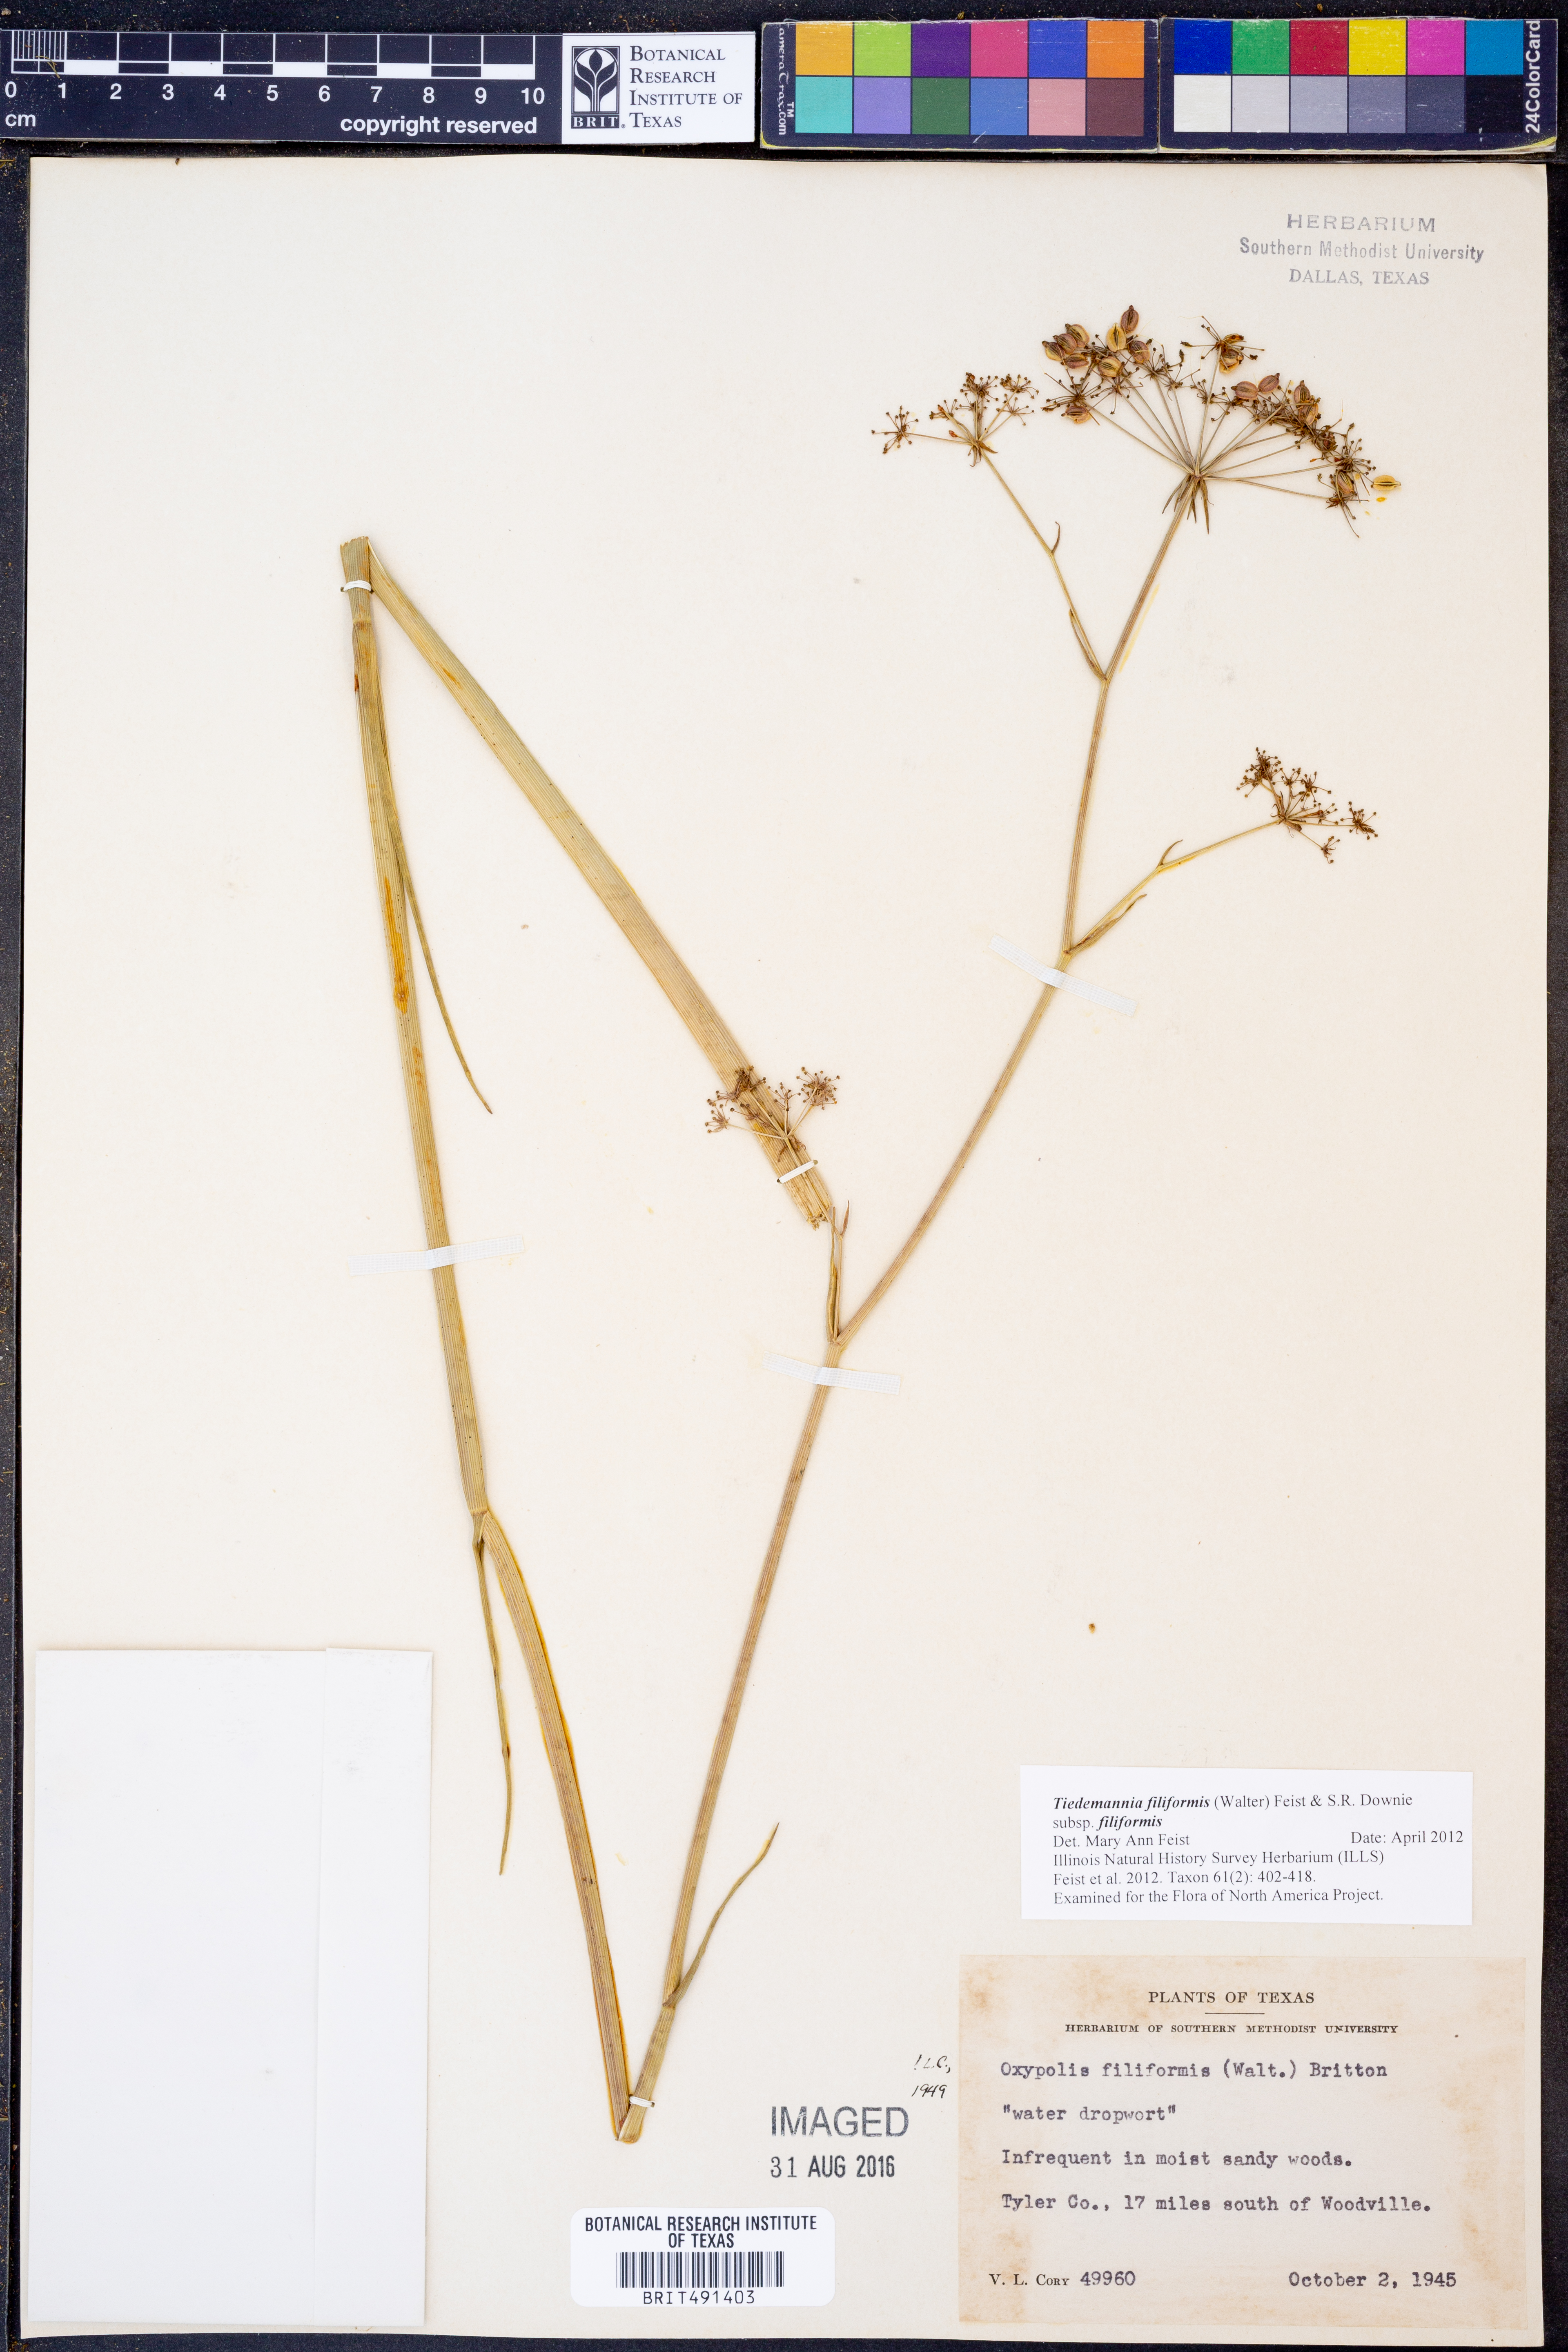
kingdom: Plantae
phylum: Tracheophyta
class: Magnoliopsida
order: Apiales
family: Apiaceae
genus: Tiedemannia
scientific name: Tiedemannia filiformis
